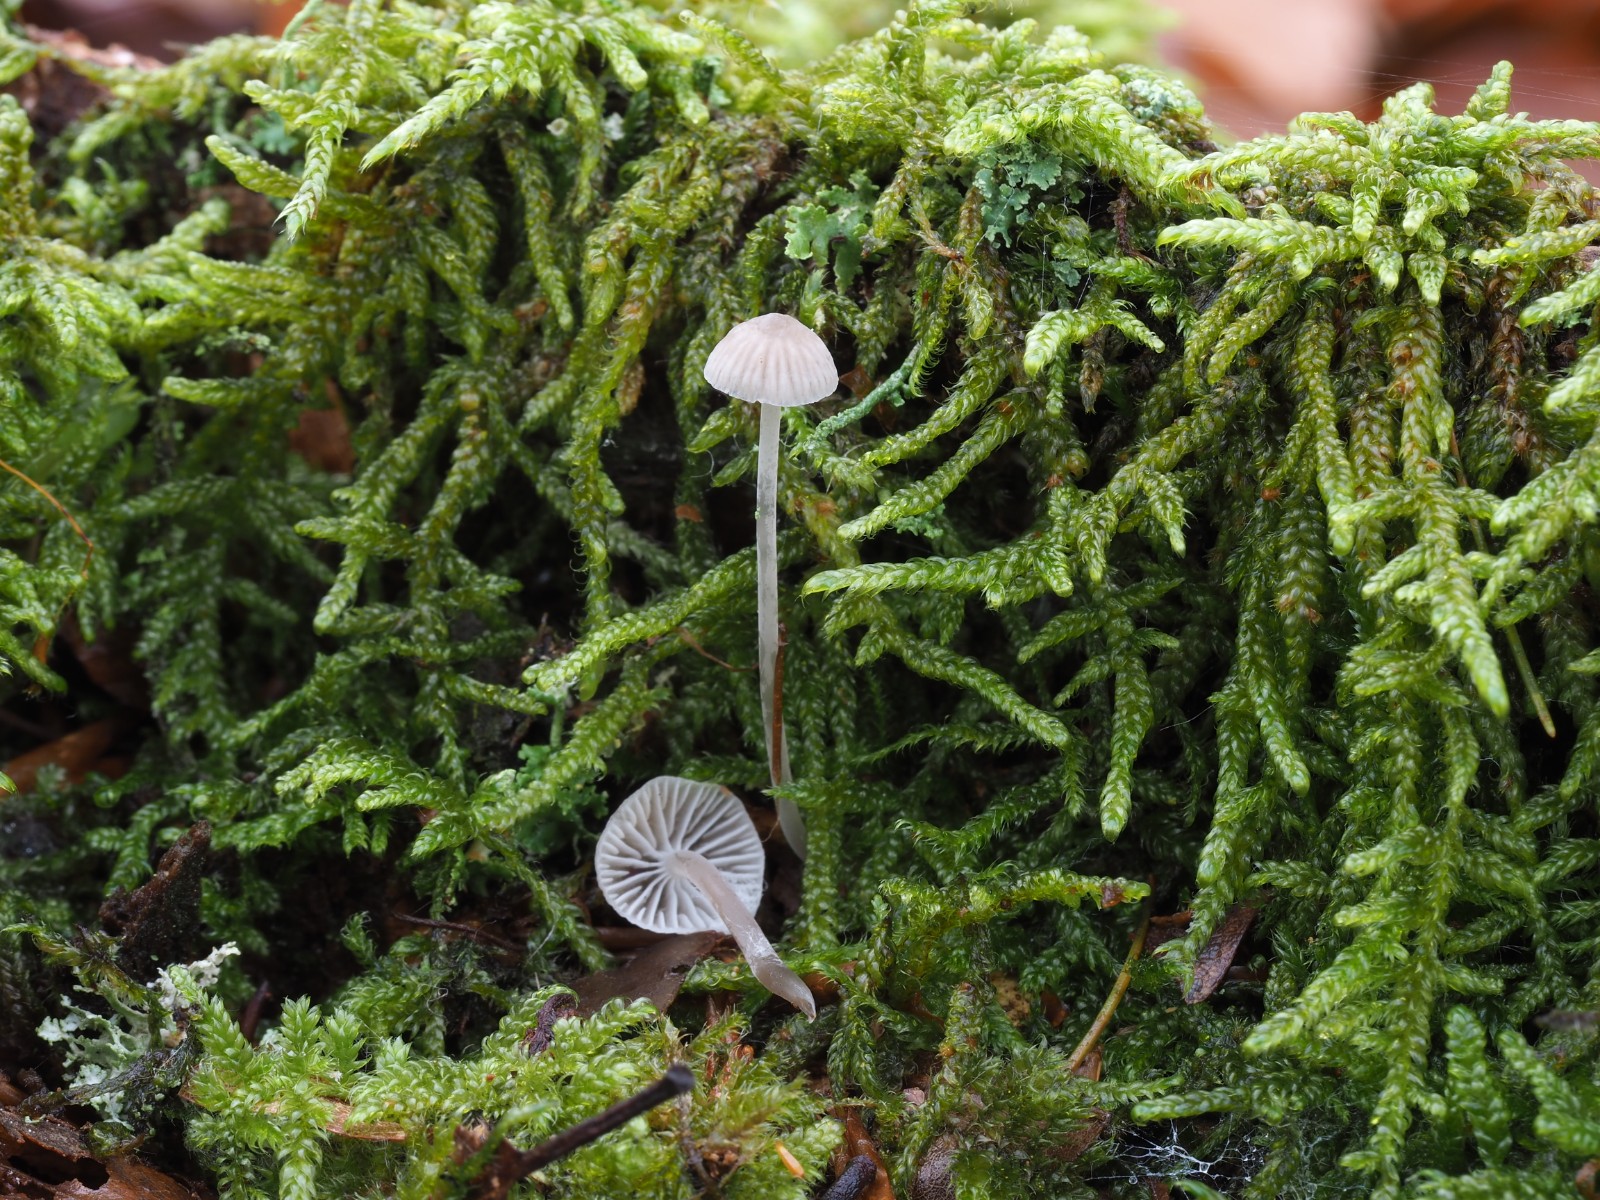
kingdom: Fungi
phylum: Basidiomycota
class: Agaricomycetes
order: Agaricales
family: Mycenaceae
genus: Mycena
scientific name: Mycena cinerella
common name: mel-huesvamp
